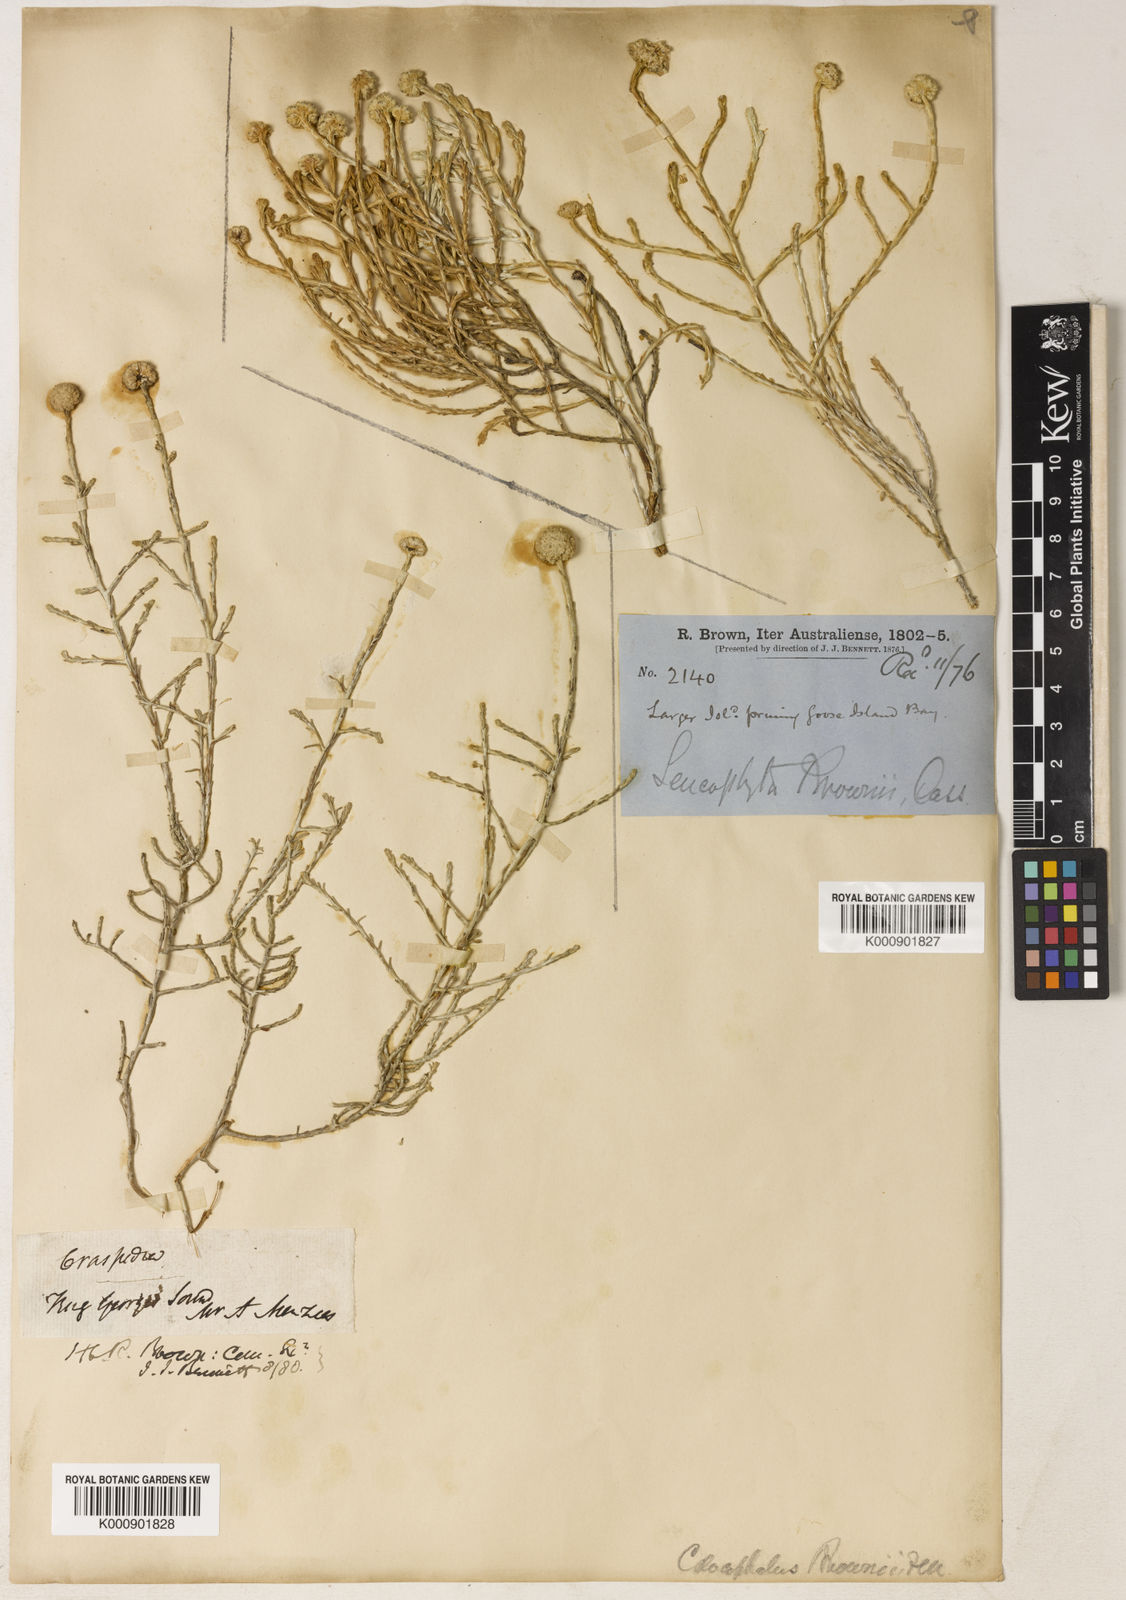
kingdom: Plantae
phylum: Tracheophyta
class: Magnoliopsida
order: Asterales
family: Asteraceae
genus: Calocephalus
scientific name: Calocephalus brownii
